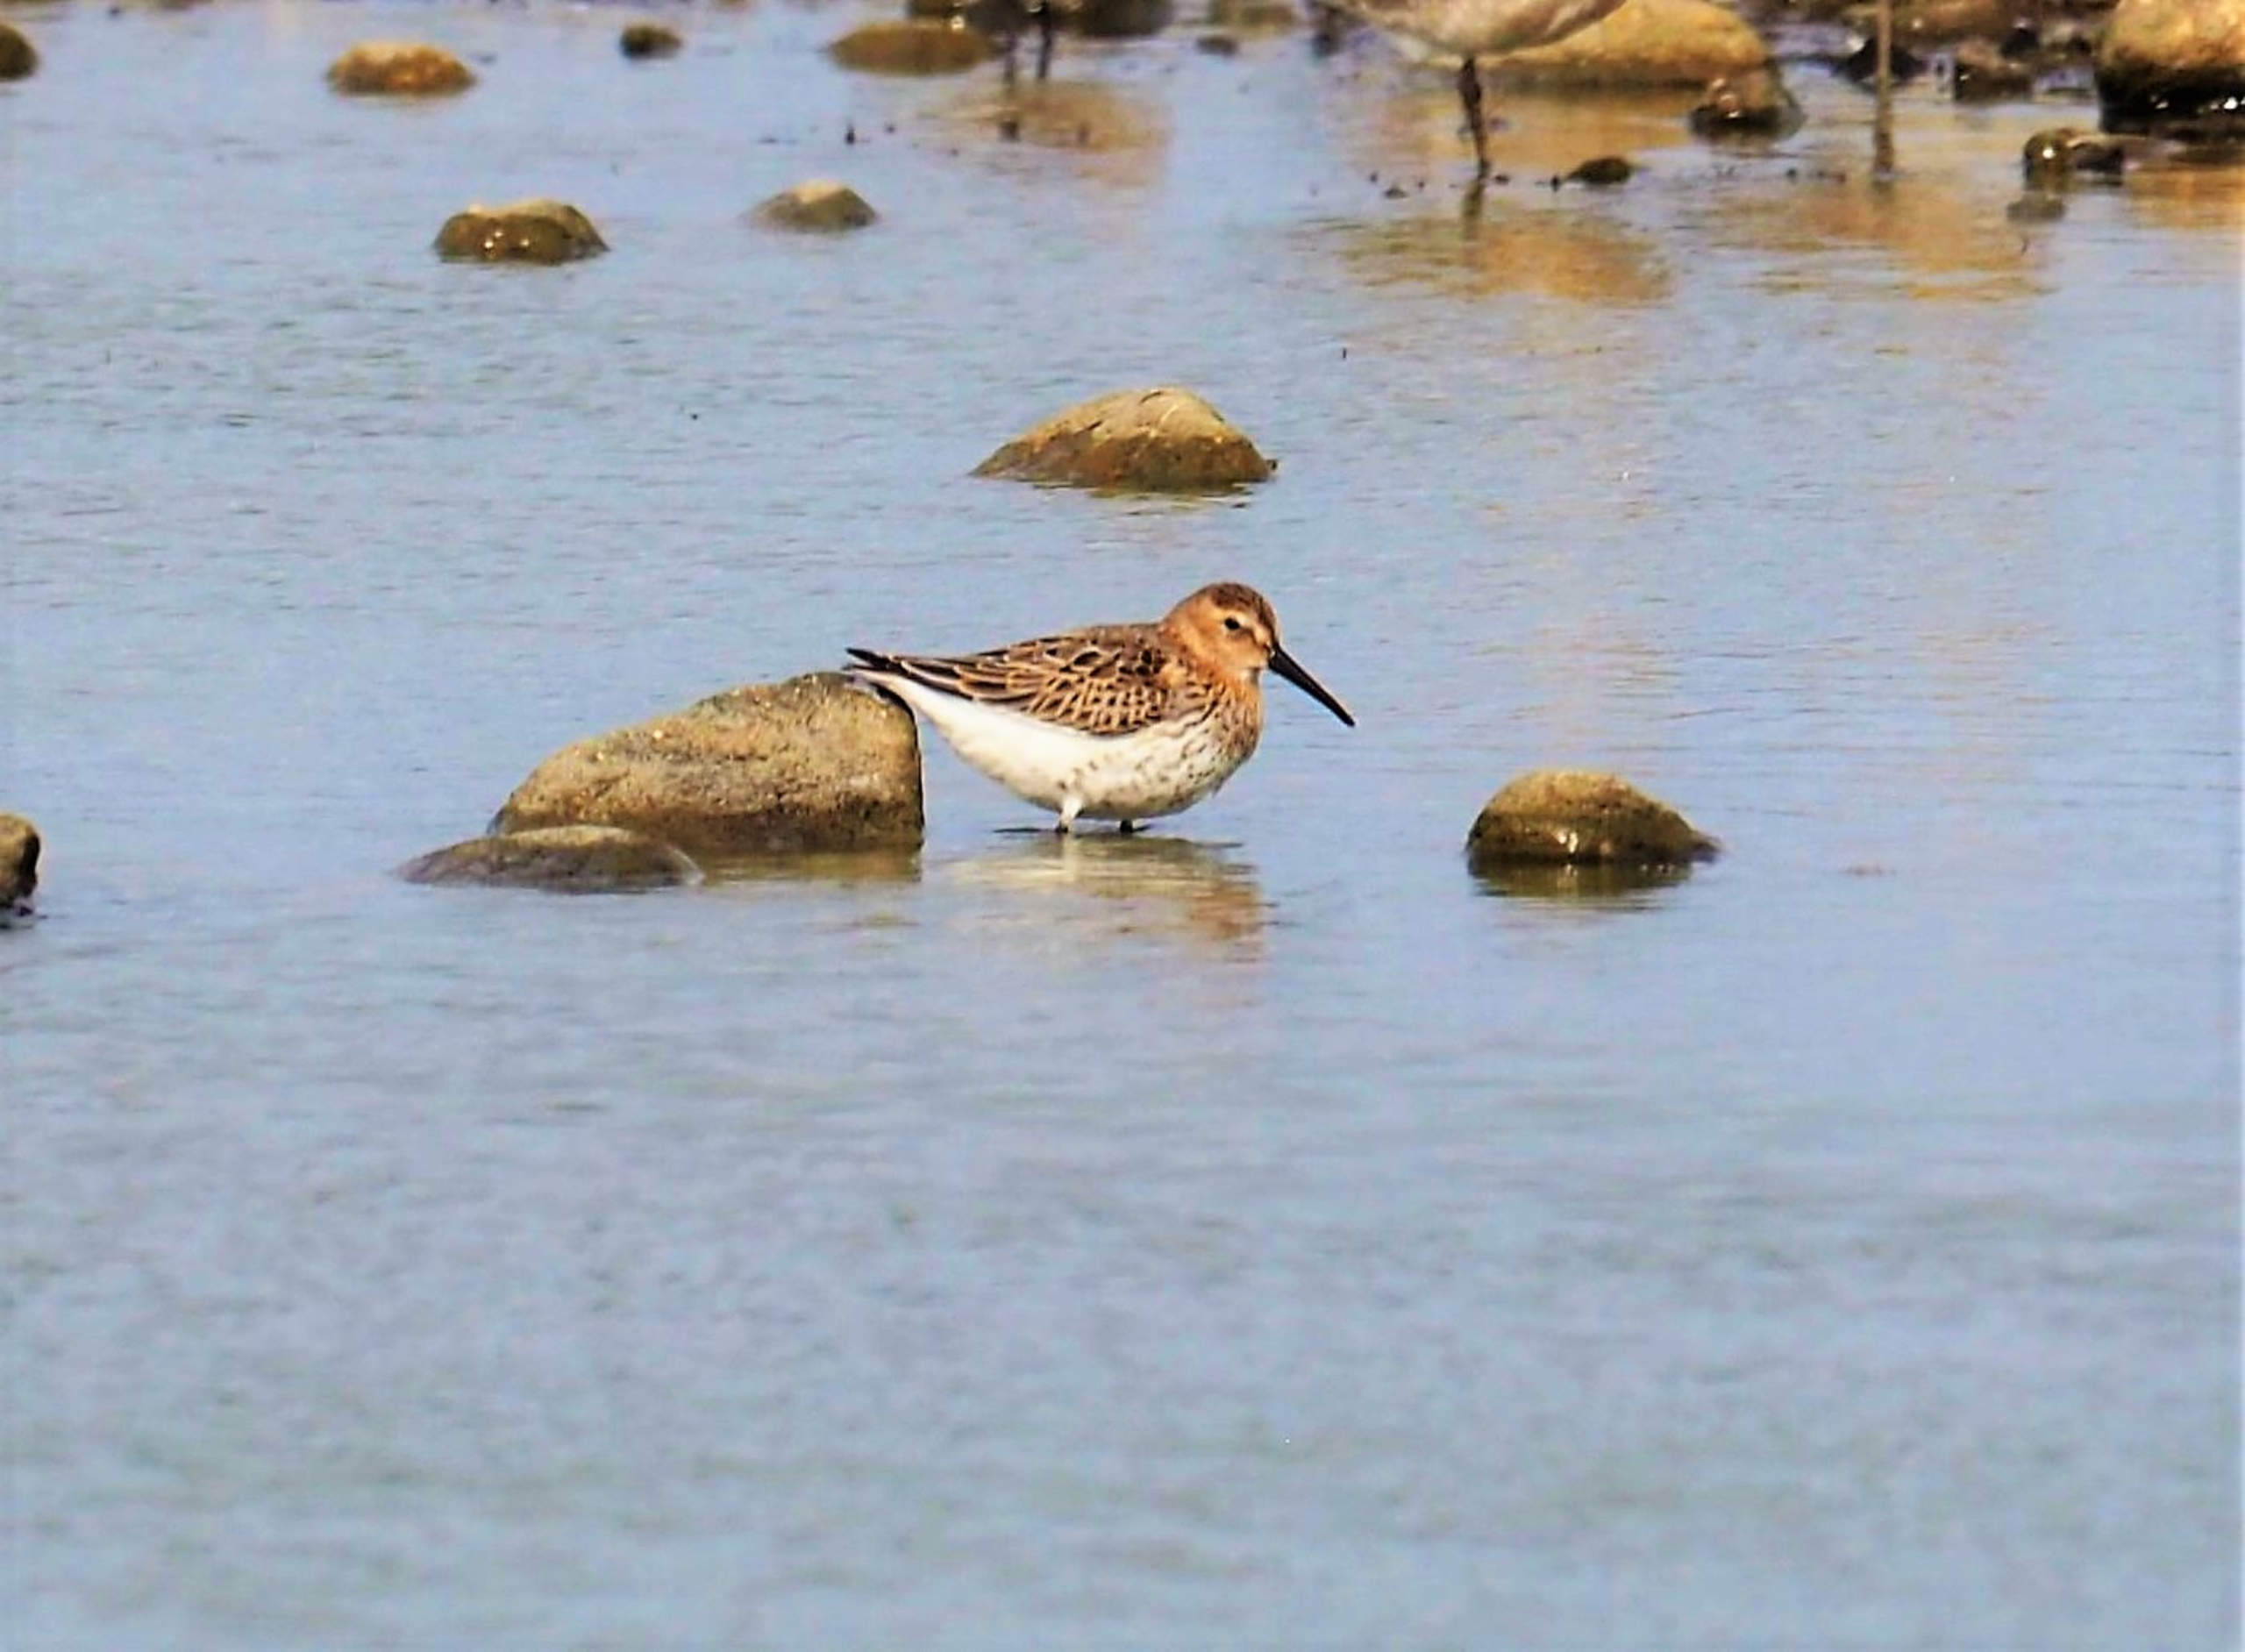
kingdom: Animalia
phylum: Chordata
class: Aves
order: Charadriiformes
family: Scolopacidae
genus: Calidris
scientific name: Calidris alpina
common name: Almindelig ryle
